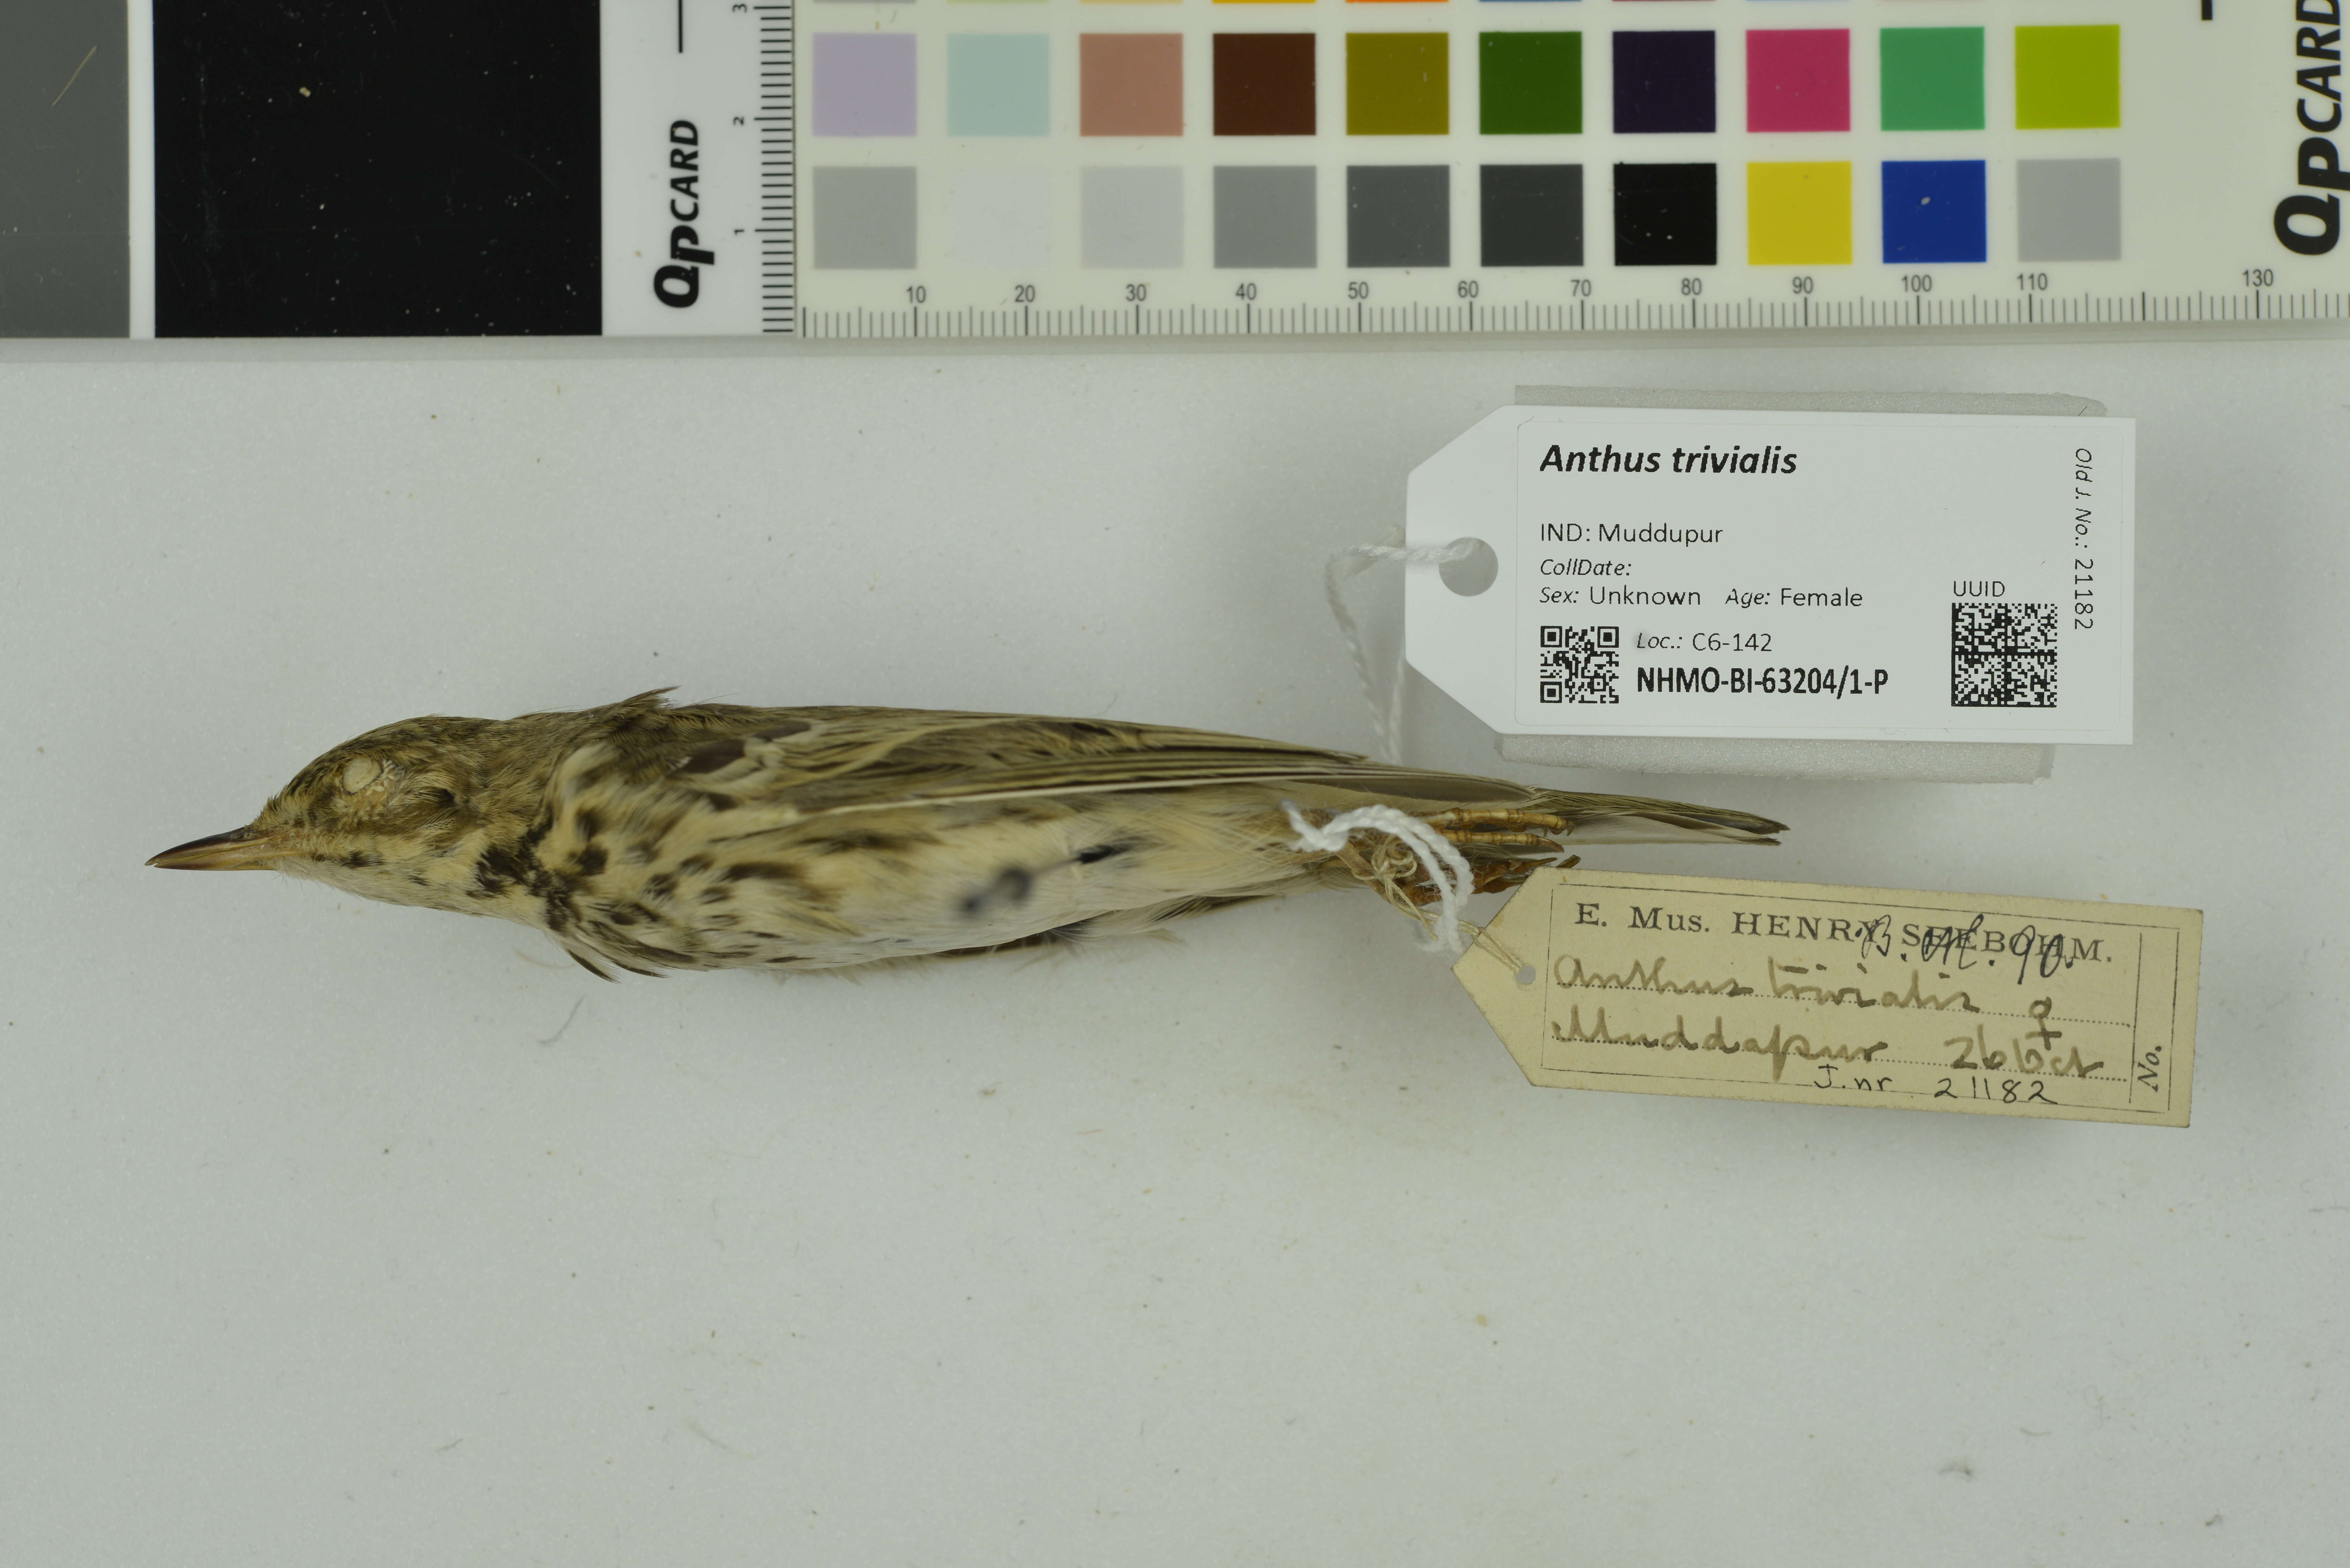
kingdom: Animalia
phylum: Chordata
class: Aves
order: Passeriformes
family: Motacillidae
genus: Anthus
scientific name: Anthus trivialis
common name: Tree pipit
